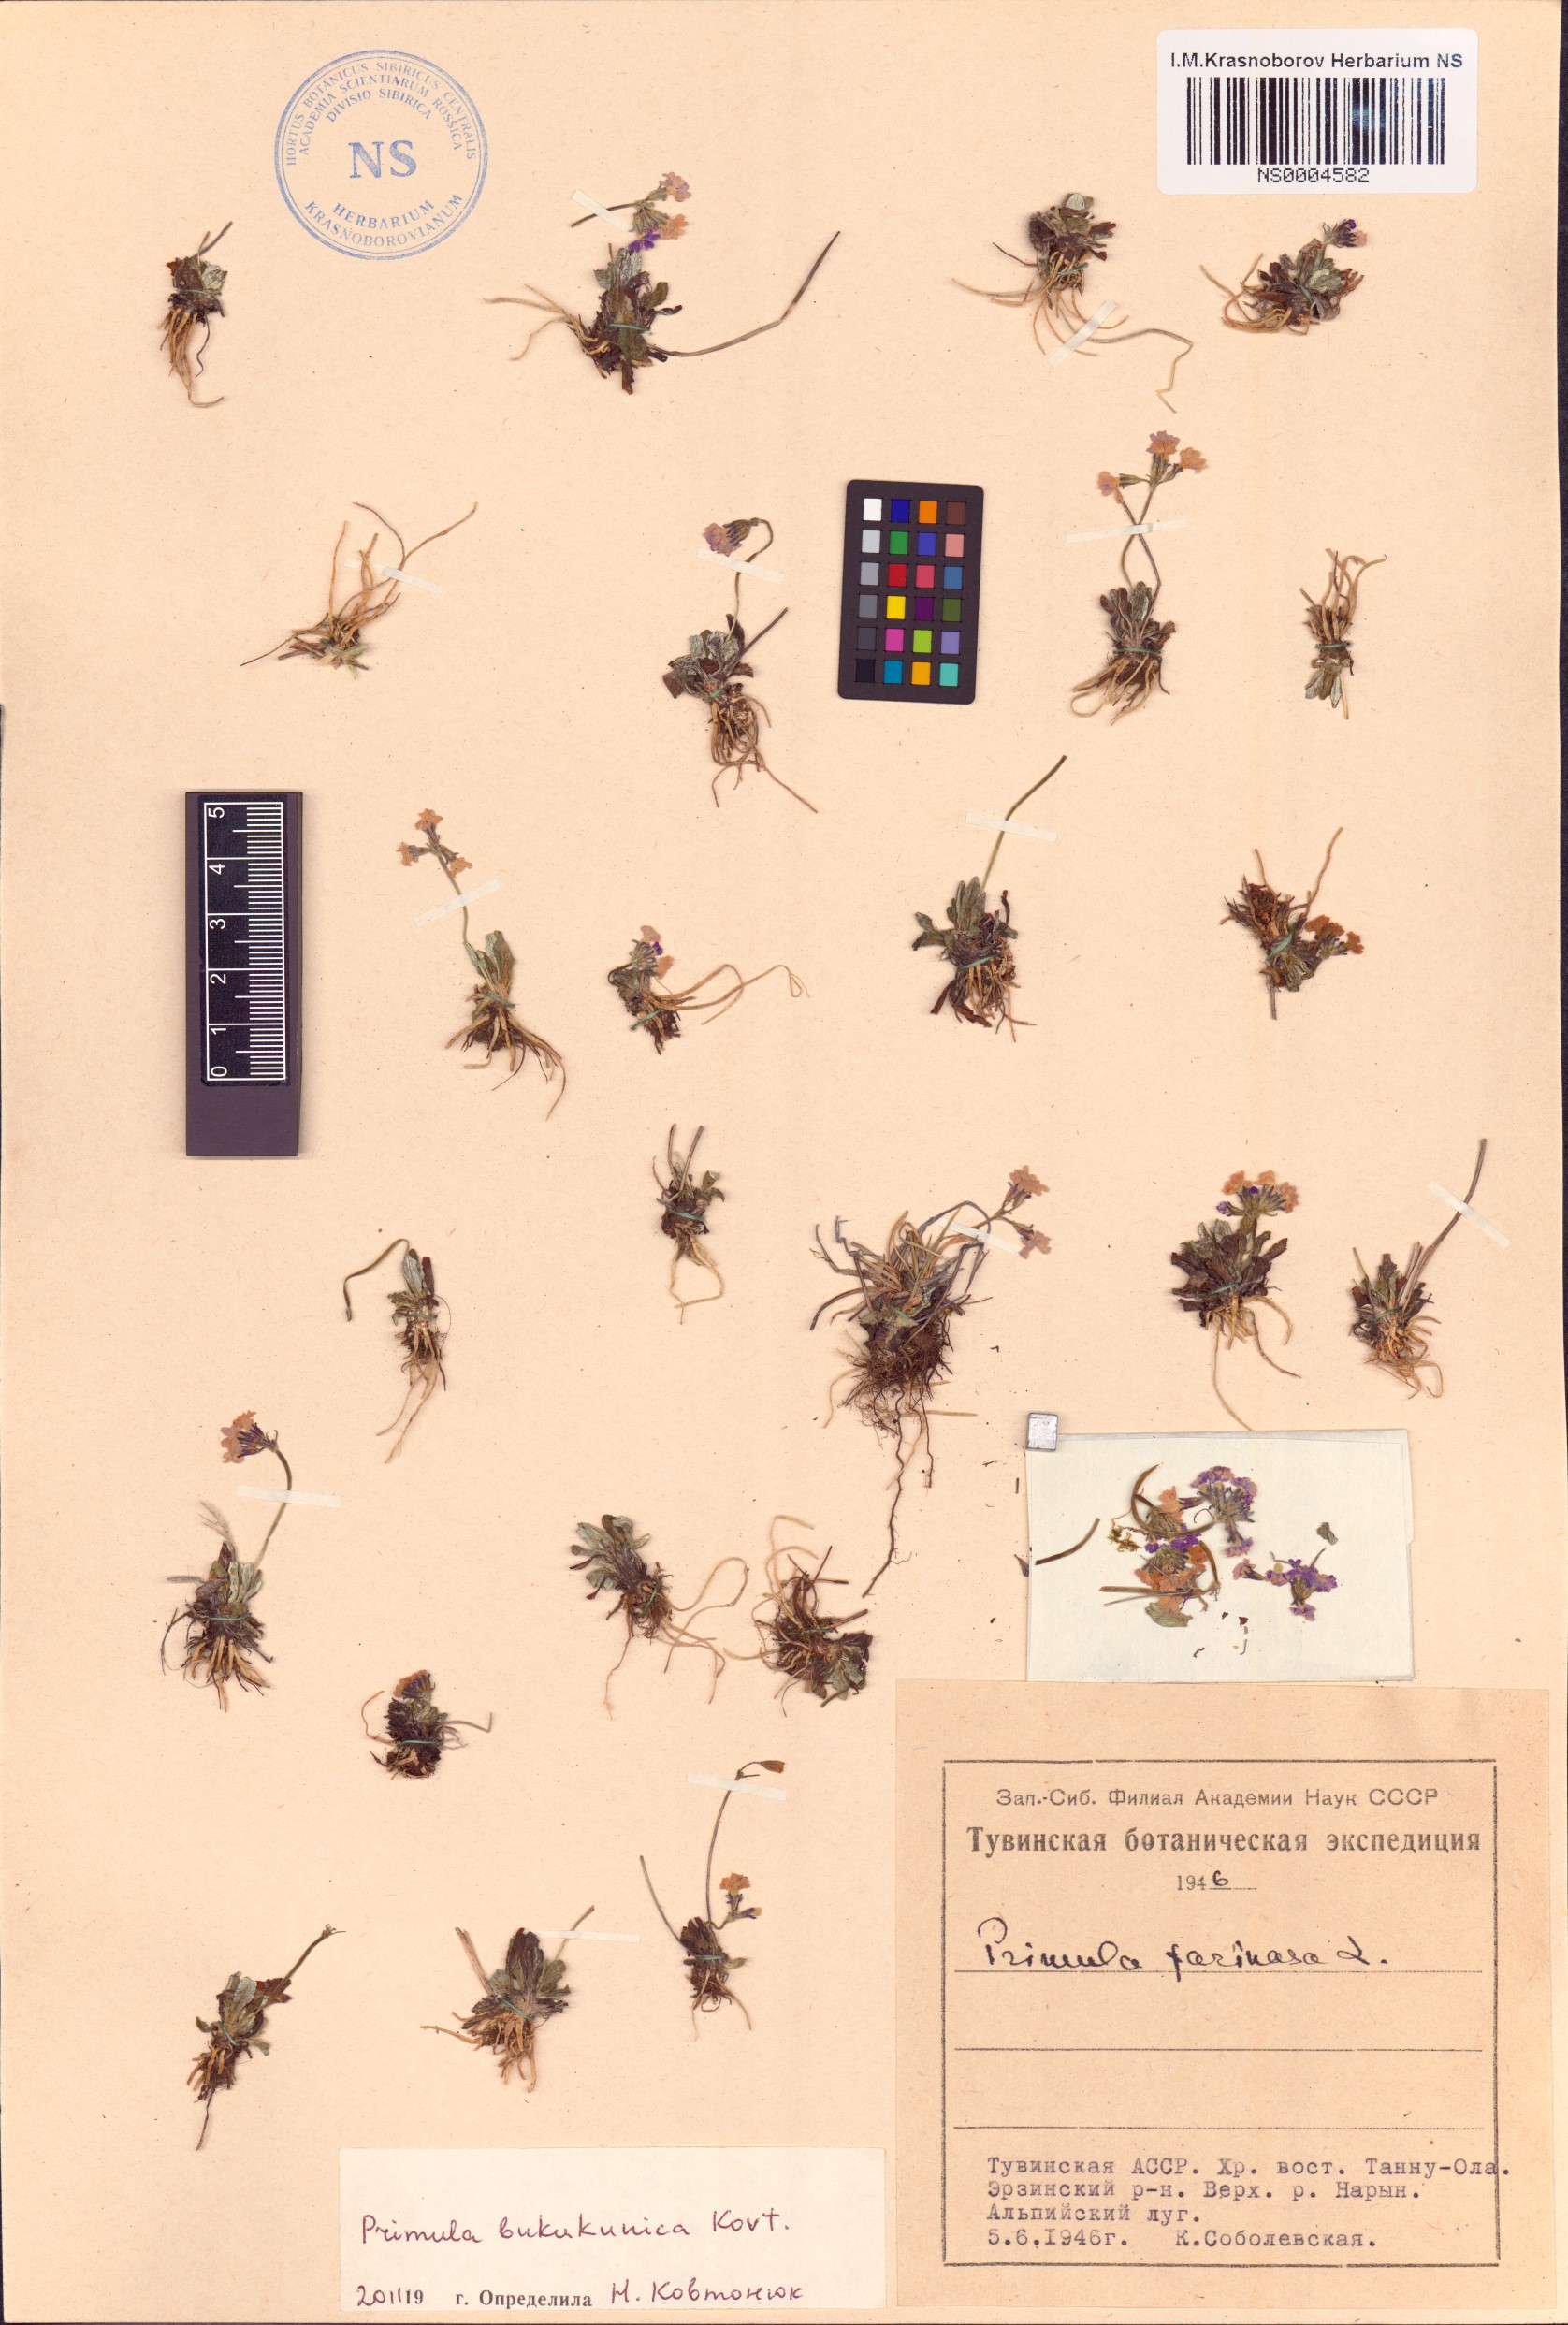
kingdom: Plantae
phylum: Tracheophyta
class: Magnoliopsida
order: Ericales
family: Primulaceae
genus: Primula
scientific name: Primula bukukunica
